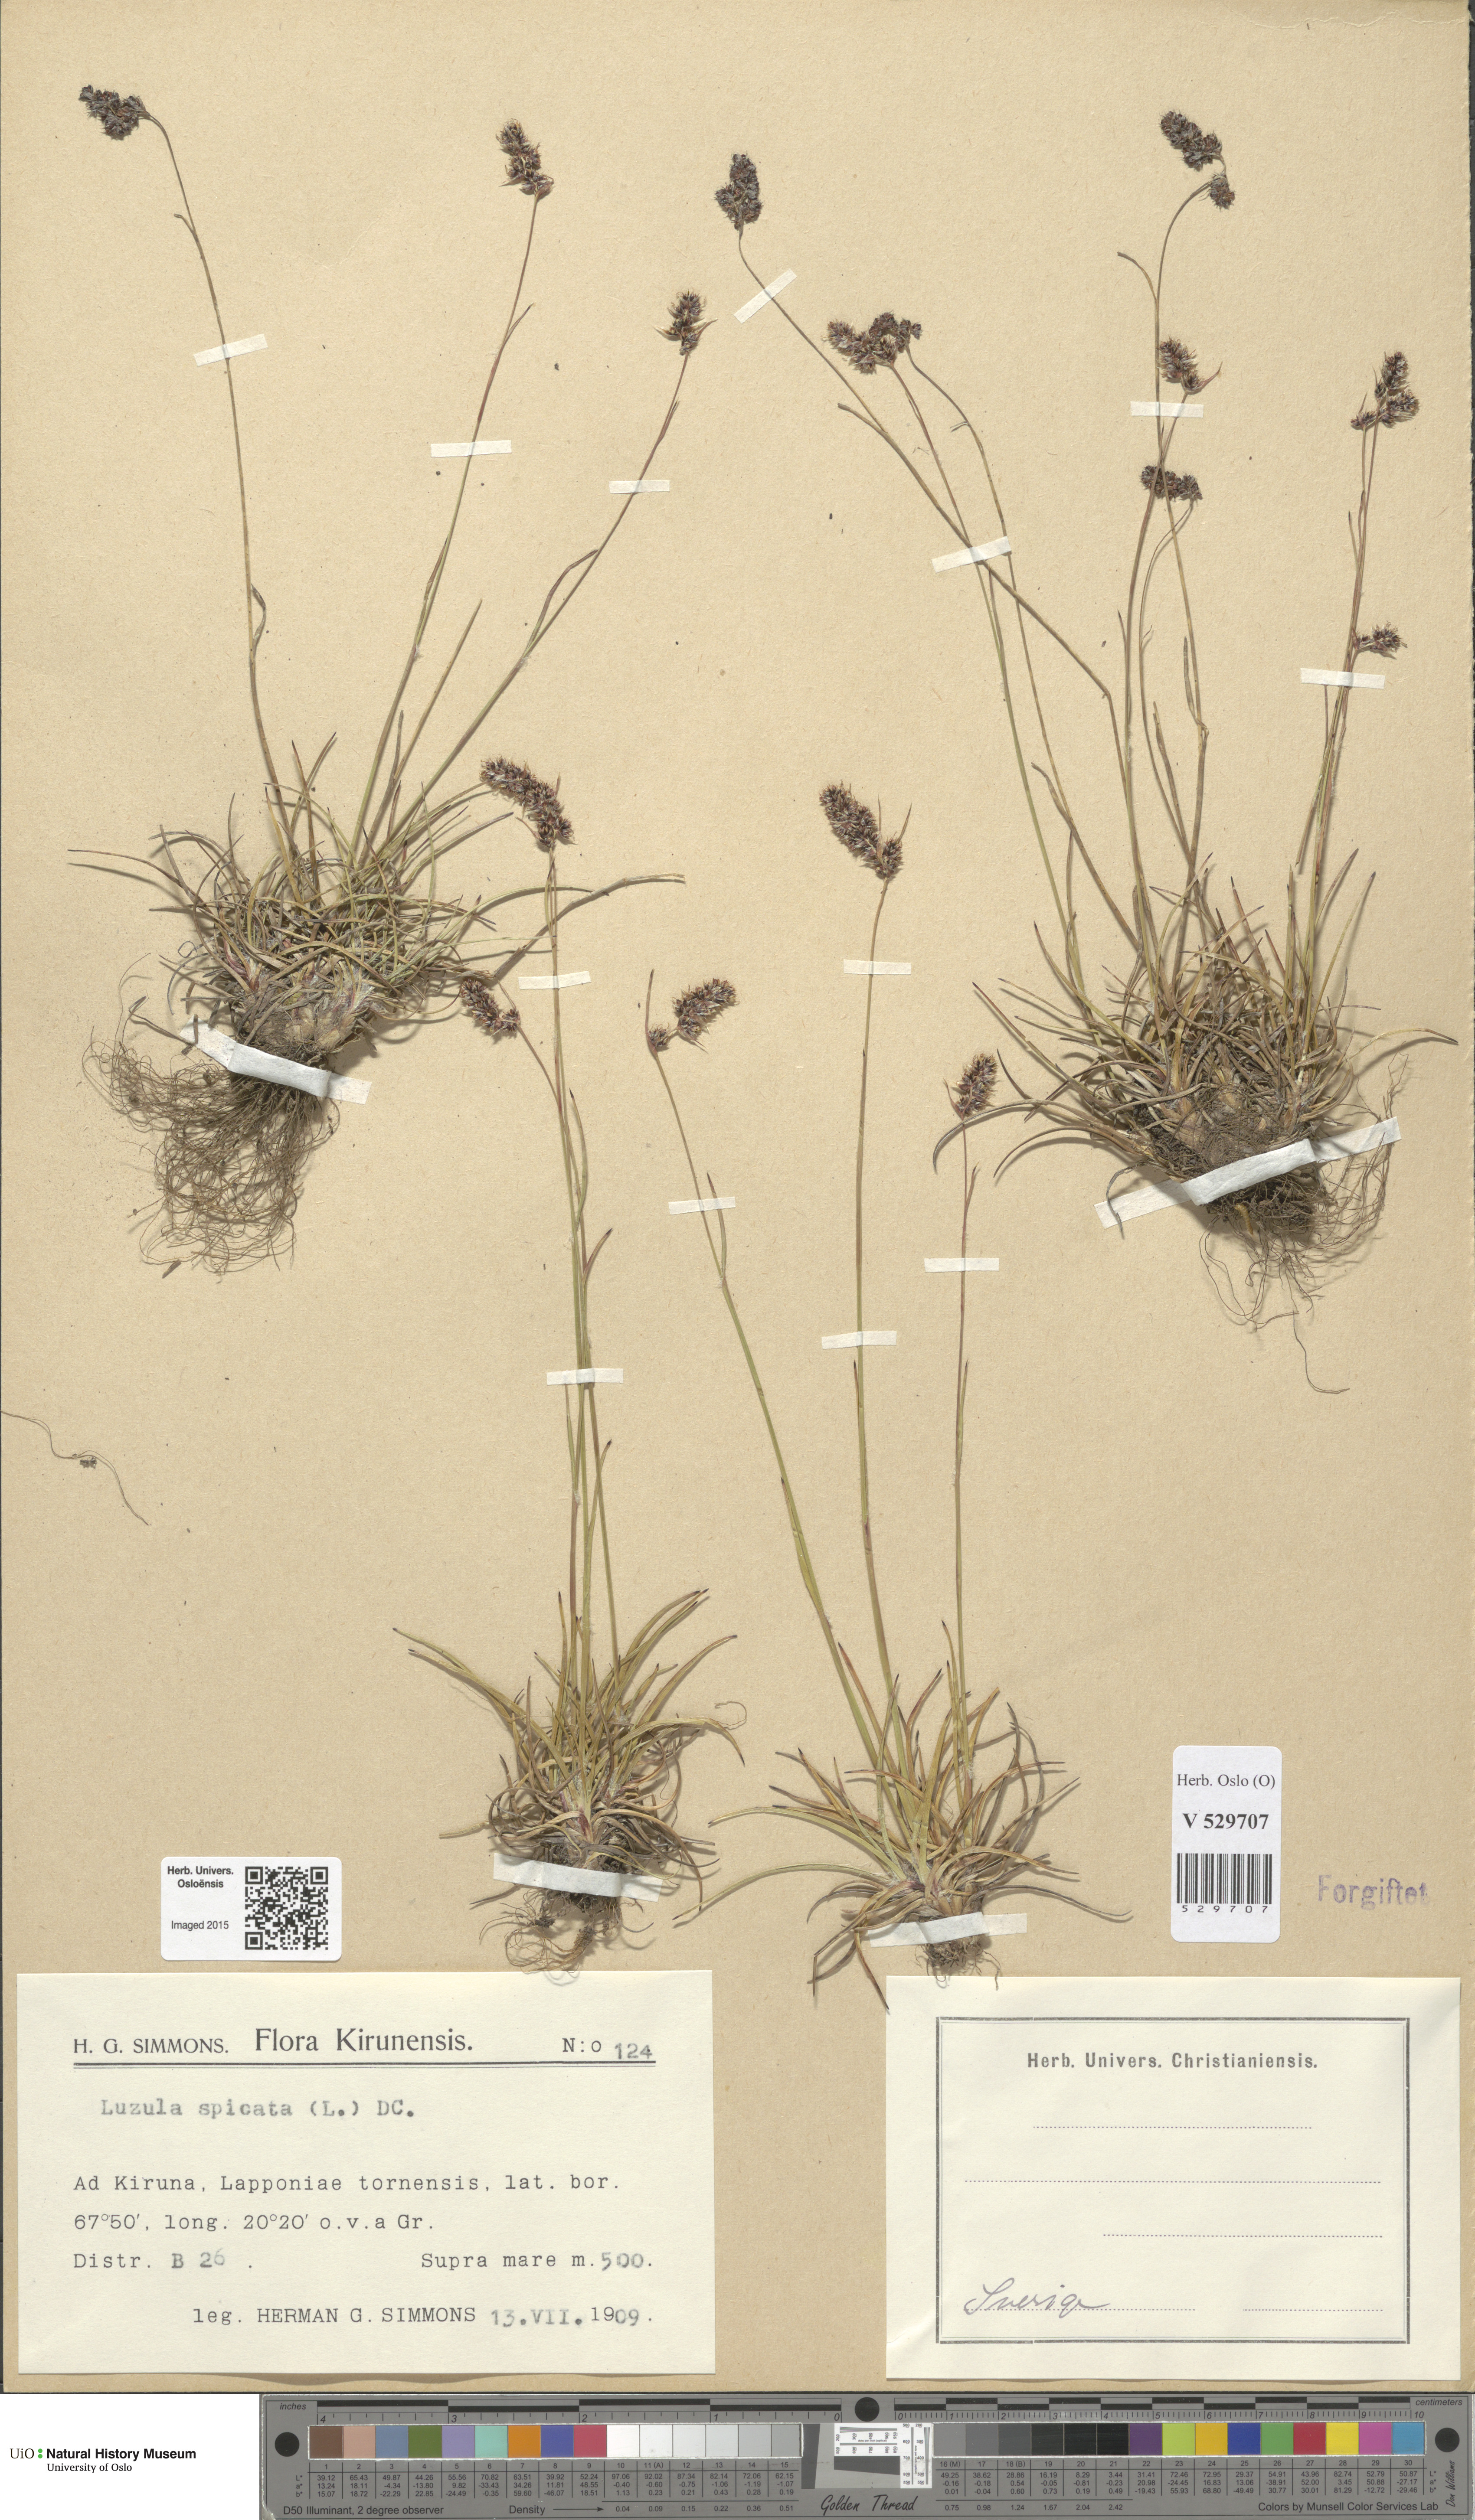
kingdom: Plantae
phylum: Tracheophyta
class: Liliopsida
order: Poales
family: Juncaceae
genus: Luzula
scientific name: Luzula spicata
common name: Spiked wood-rush
